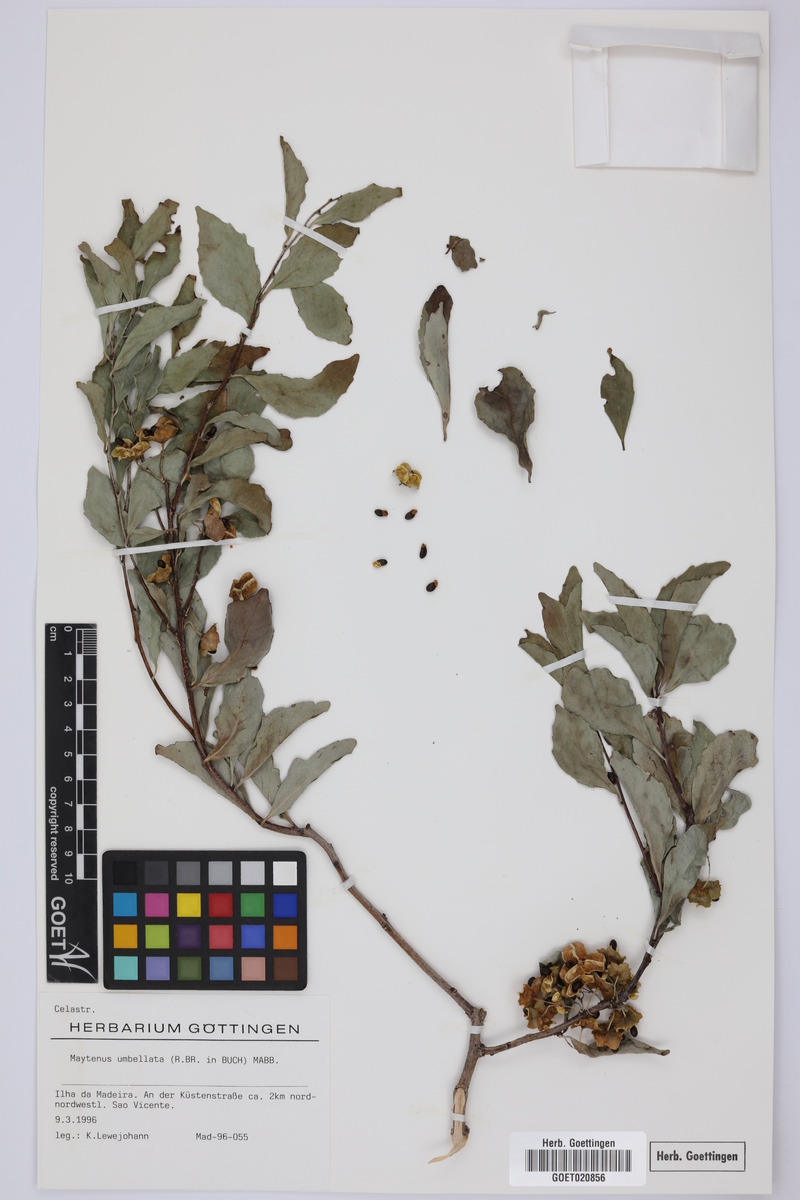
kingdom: Plantae
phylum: Tracheophyta
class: Magnoliopsida
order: Celastrales
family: Celastraceae
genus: Gymnosporia
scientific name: Gymnosporia dryandri
